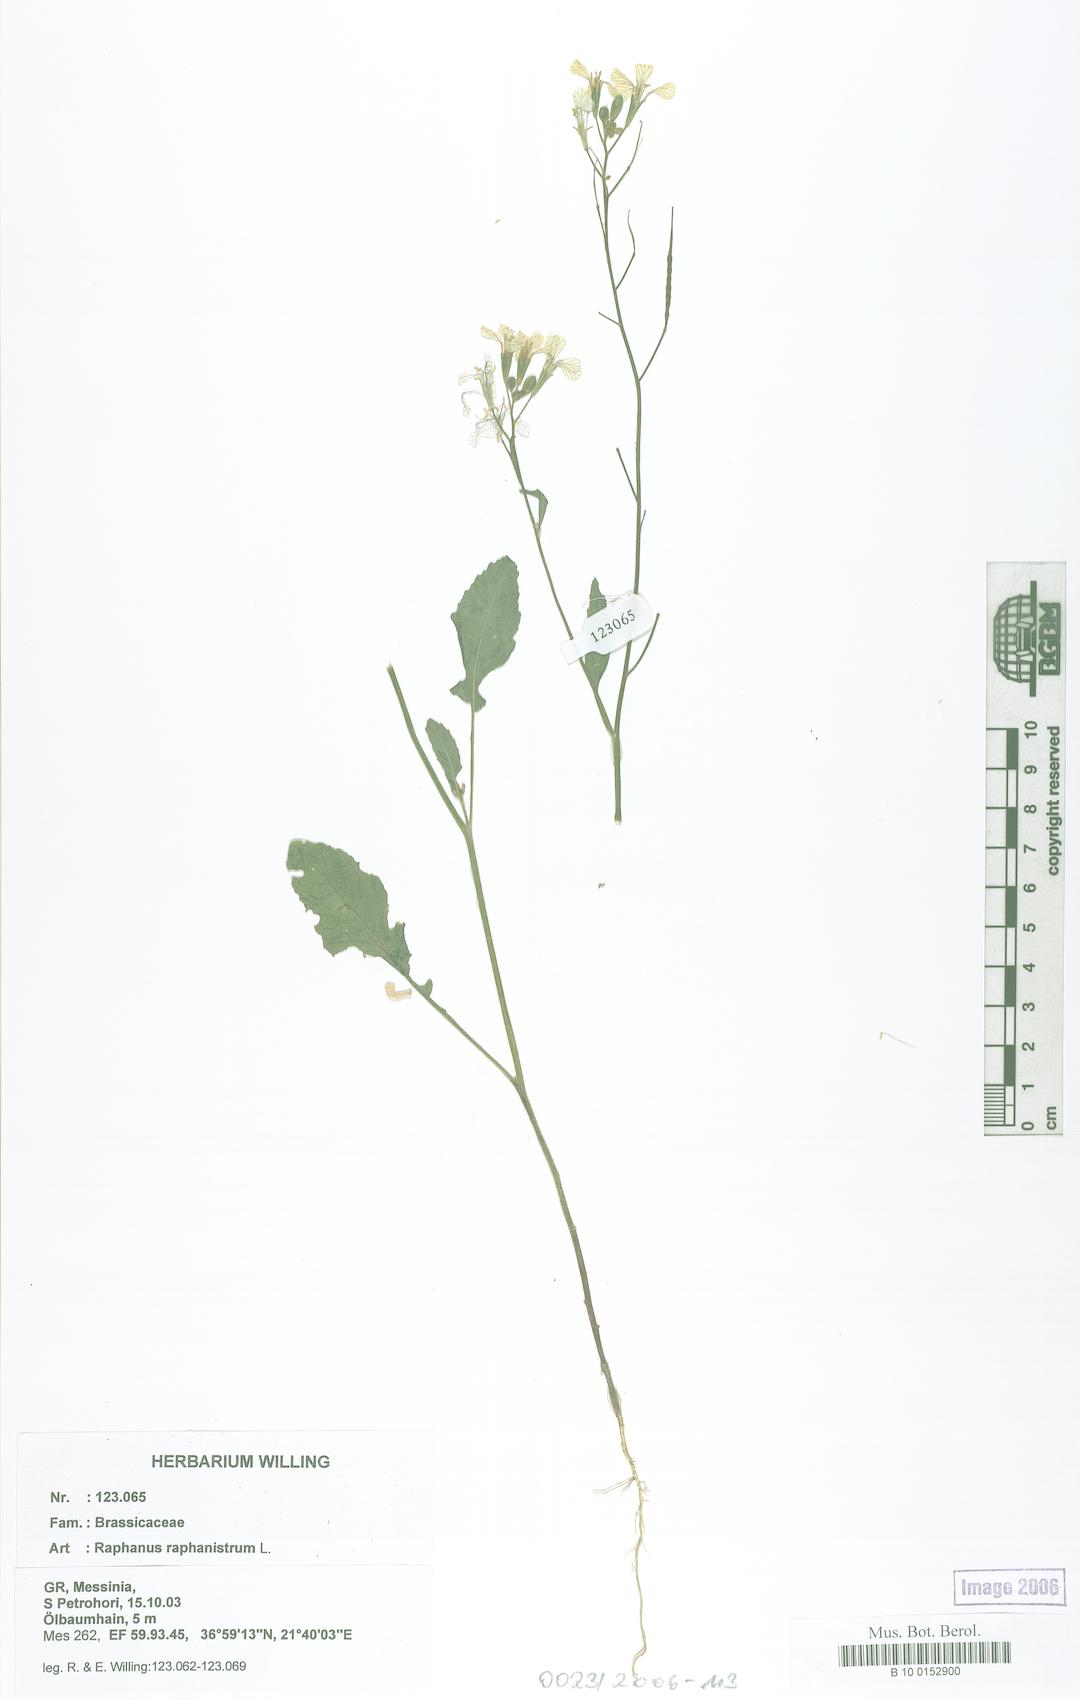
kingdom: Plantae
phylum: Tracheophyta
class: Magnoliopsida
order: Brassicales
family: Brassicaceae
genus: Raphanus
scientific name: Raphanus raphanistrum
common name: Wild radish
